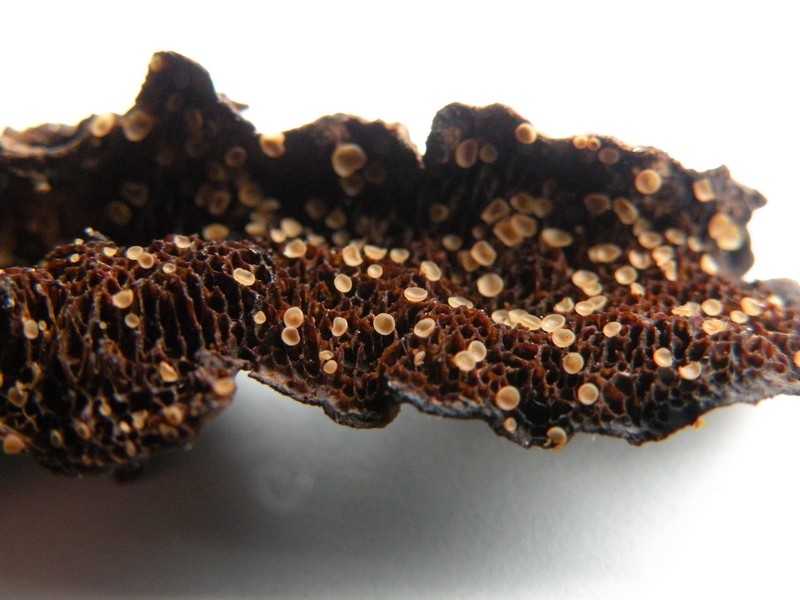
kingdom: Fungi
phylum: Ascomycota
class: Orbiliomycetes
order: Orbiliales
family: Orbiliaceae
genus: Hyalorbilia
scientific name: Hyalorbilia inflatula
